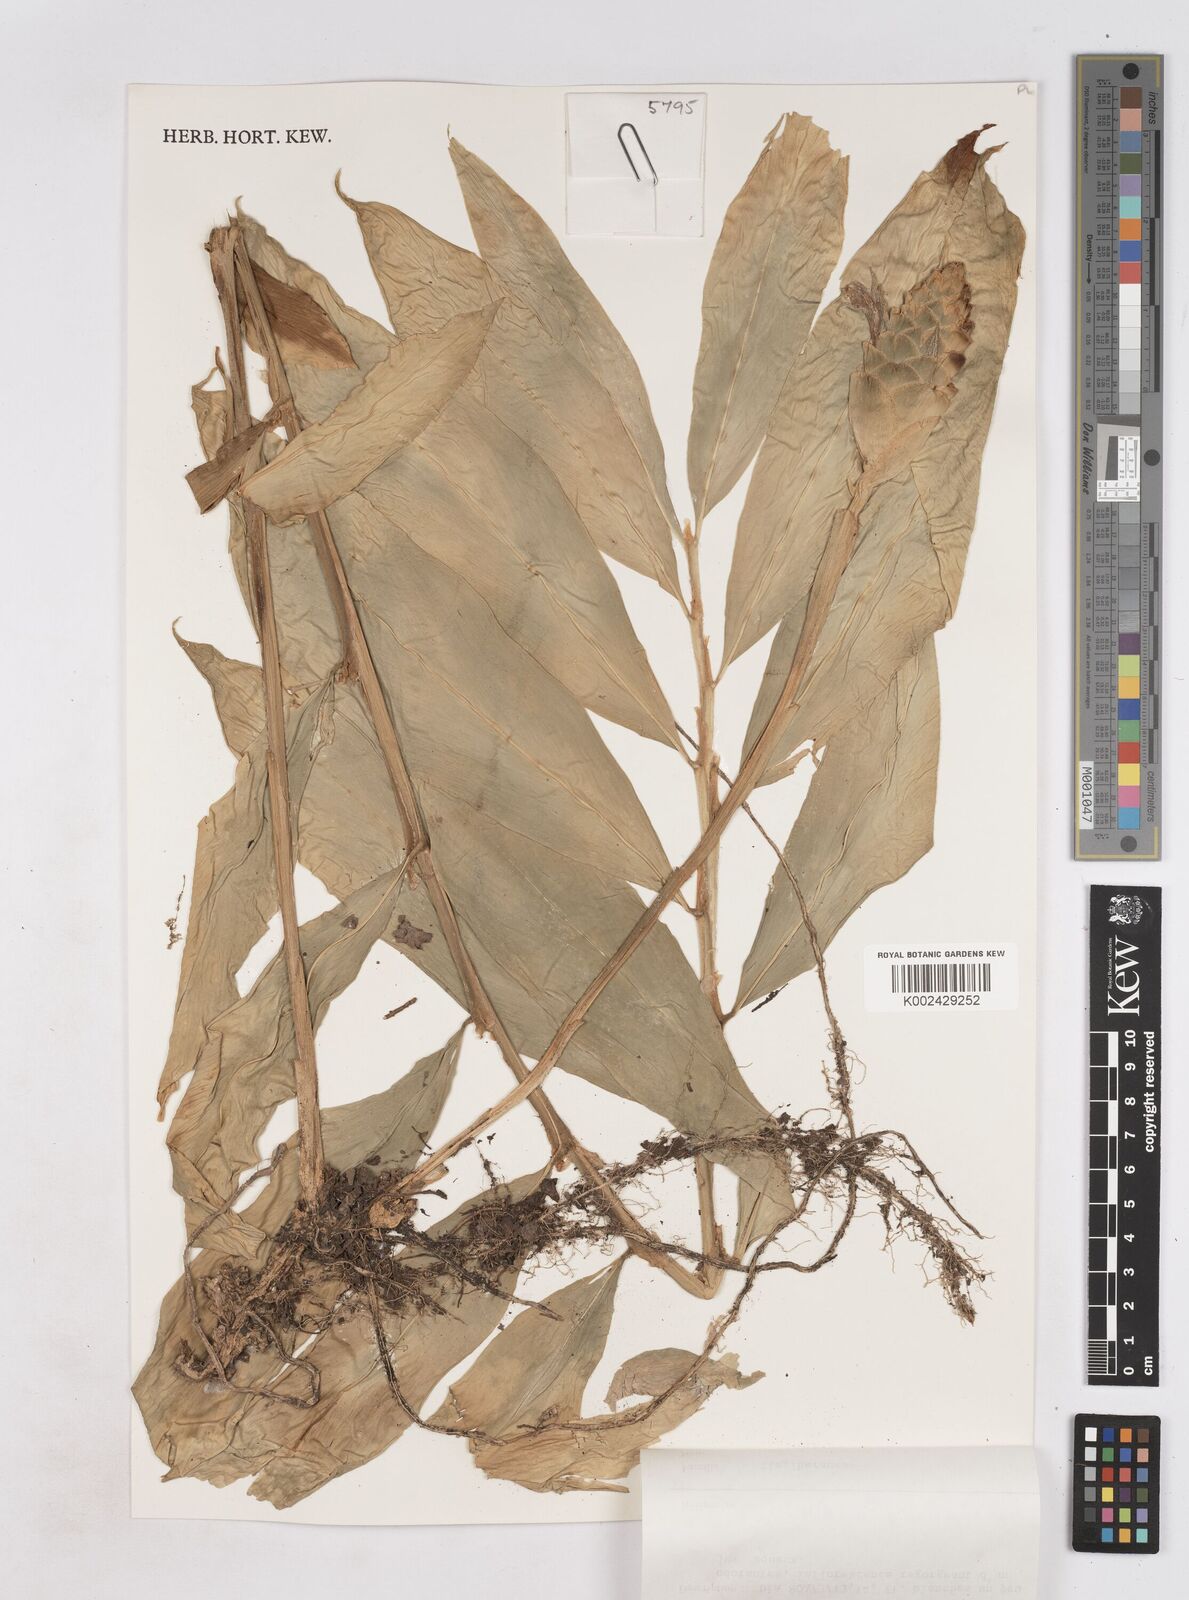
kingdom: Plantae
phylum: Tracheophyta
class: Liliopsida
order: Zingiberales
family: Zingiberaceae
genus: Zingiber
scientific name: Zingiber zerumbet
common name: Bitter ginger
